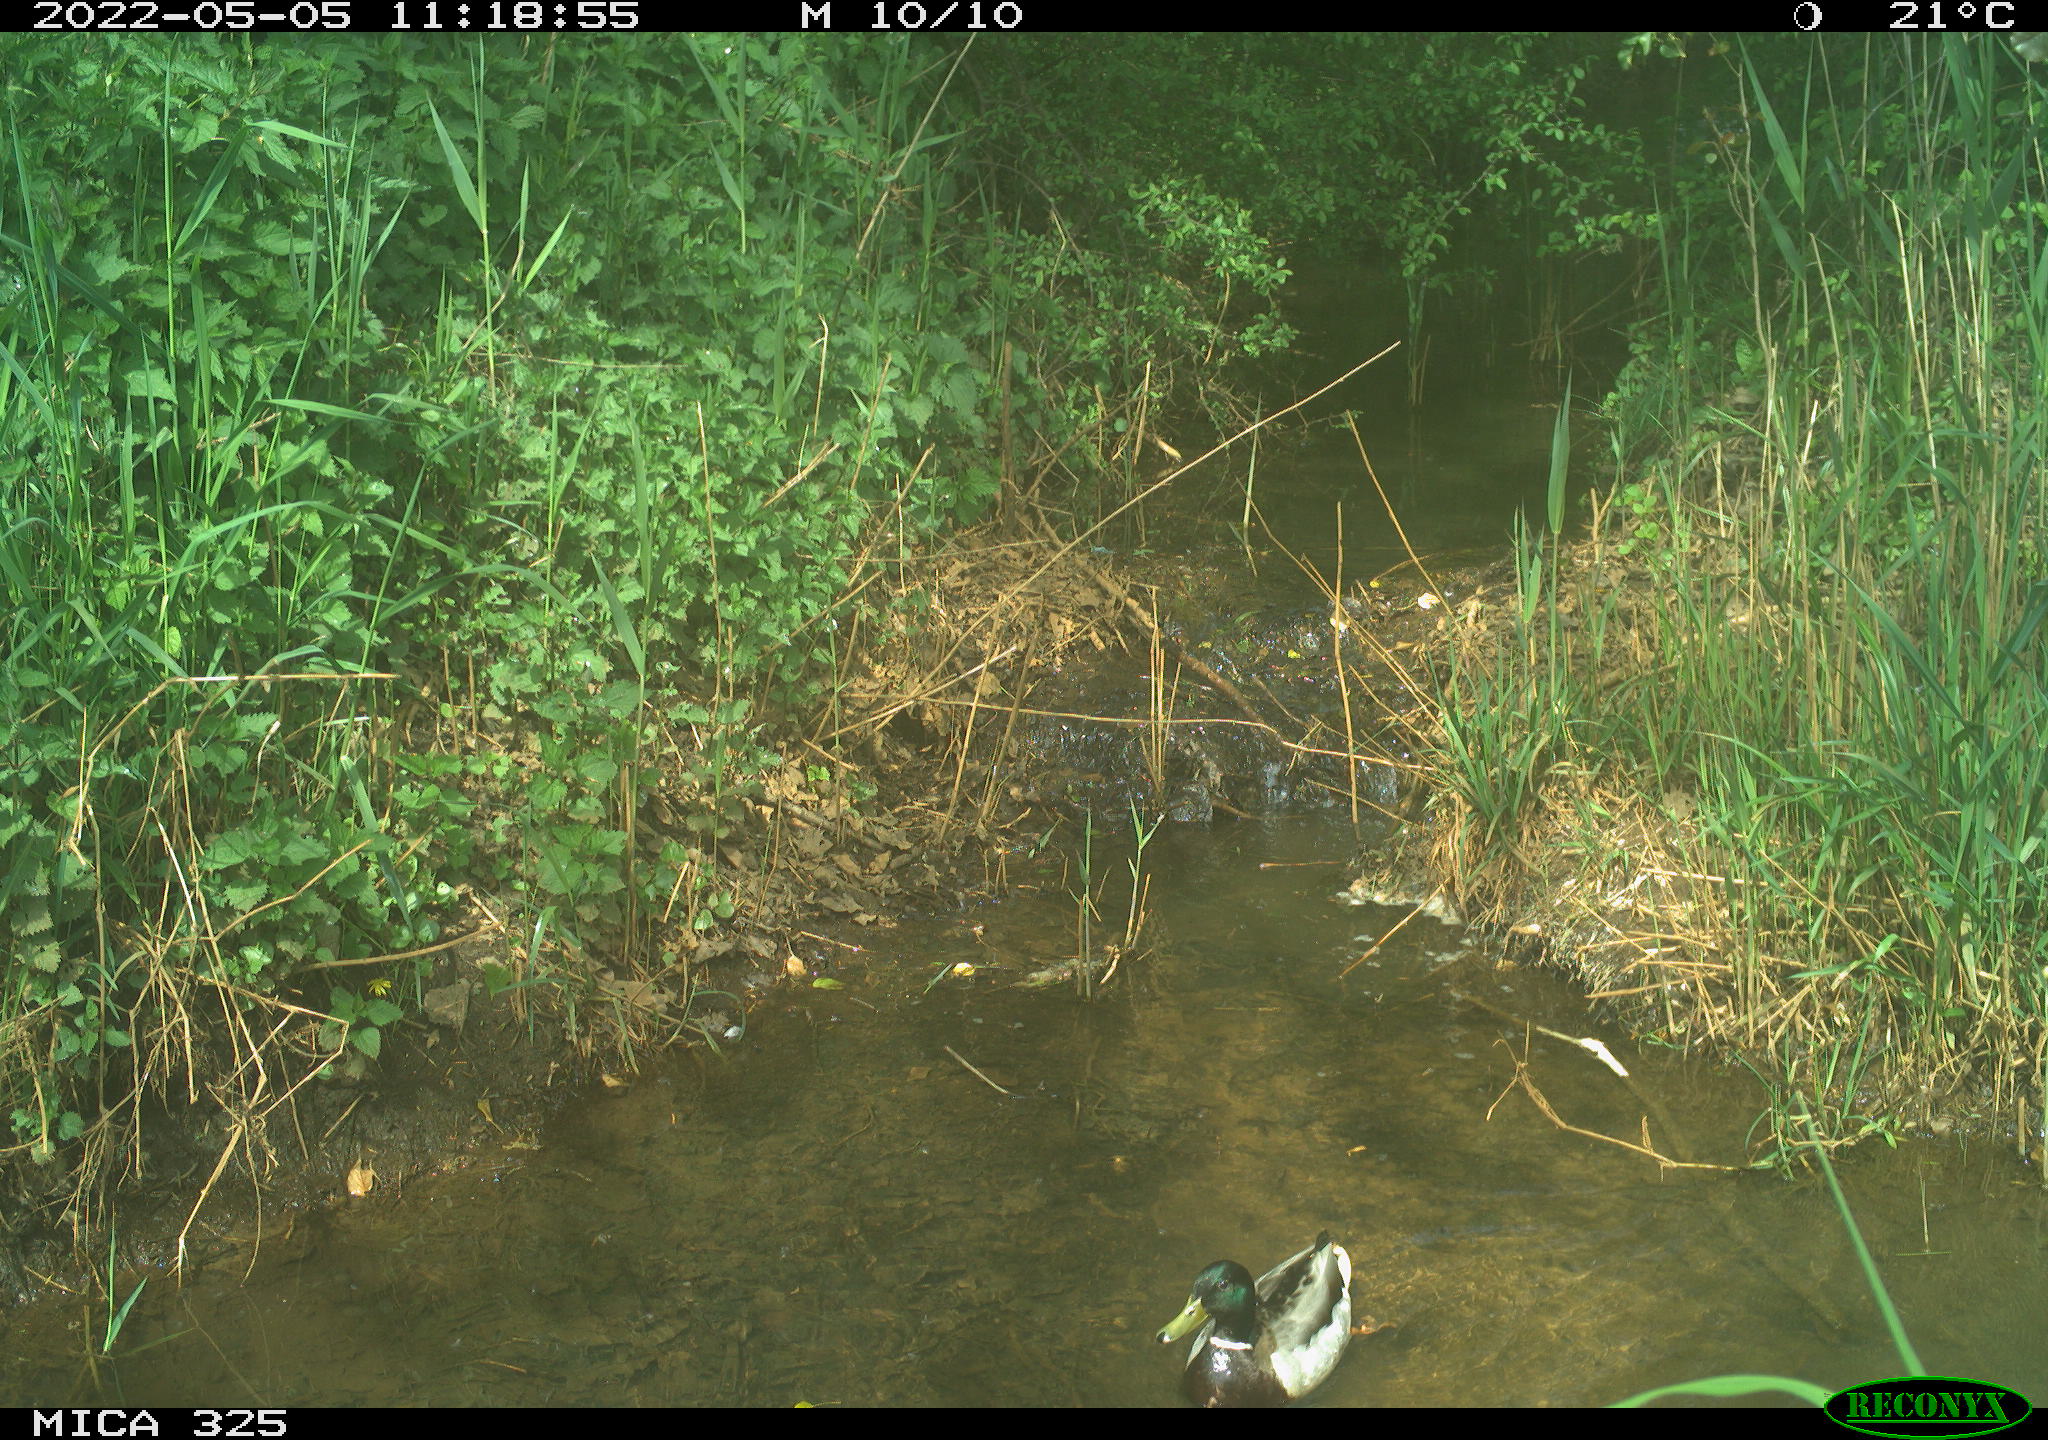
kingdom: Animalia
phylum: Chordata
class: Aves
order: Anseriformes
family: Anatidae
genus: Anas
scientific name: Anas platyrhynchos
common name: Mallard
